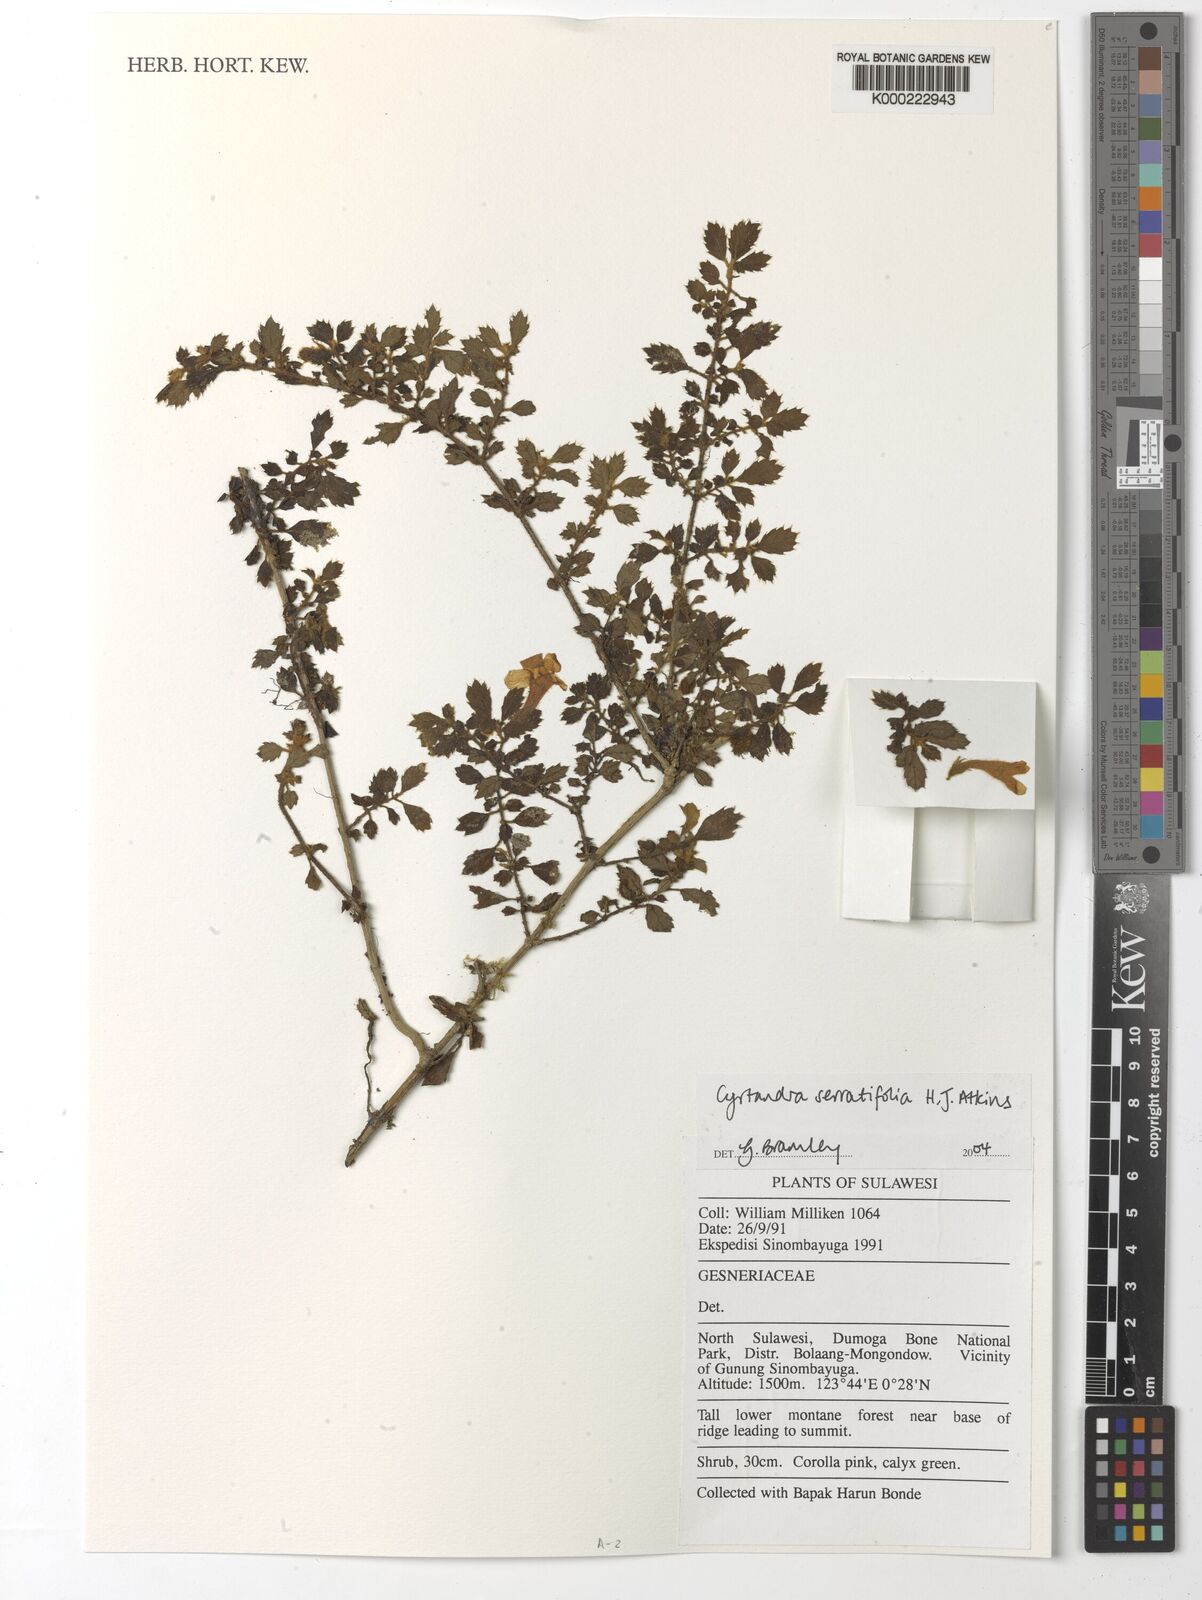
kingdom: Plantae
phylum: Tracheophyta
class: Magnoliopsida
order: Lamiales
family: Gesneriaceae
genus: Cyrtandra
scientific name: Cyrtandra serratifolia
